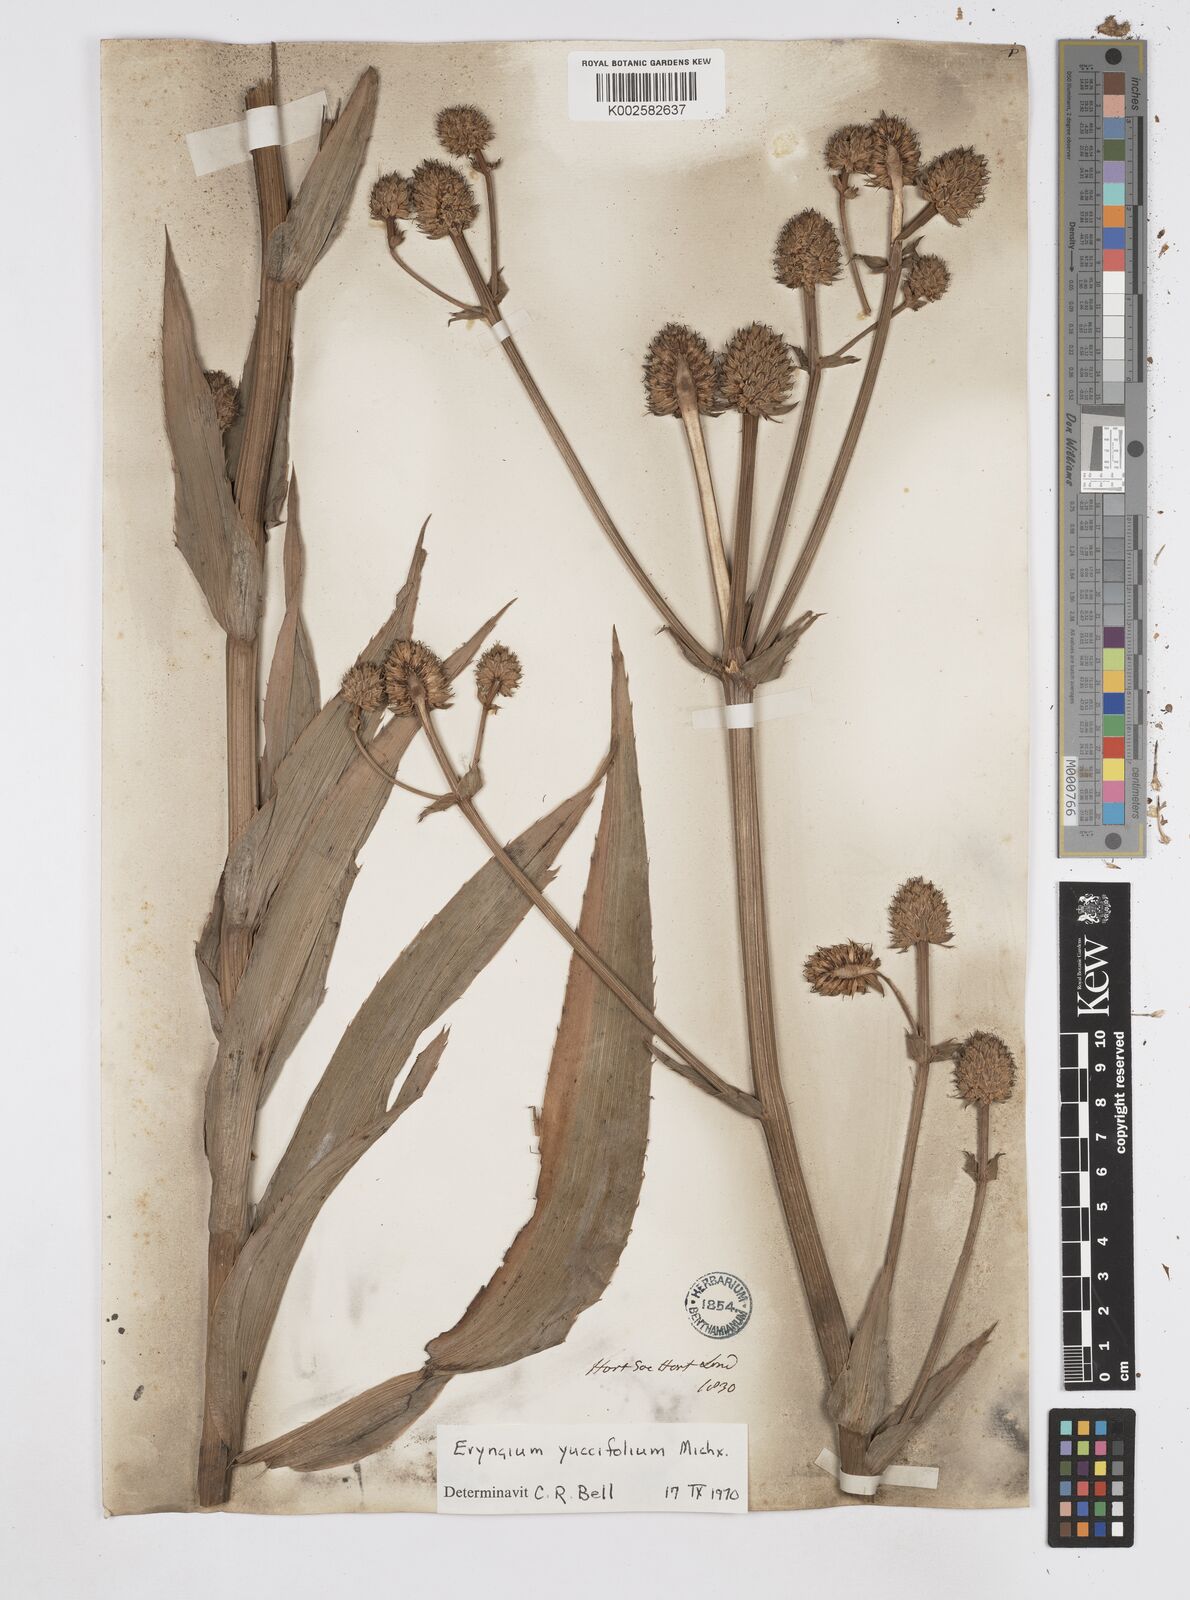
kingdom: Plantae
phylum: Tracheophyta
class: Magnoliopsida
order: Apiales
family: Apiaceae
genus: Eryngium
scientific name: Eryngium yuccifolium
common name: Button eryngo
